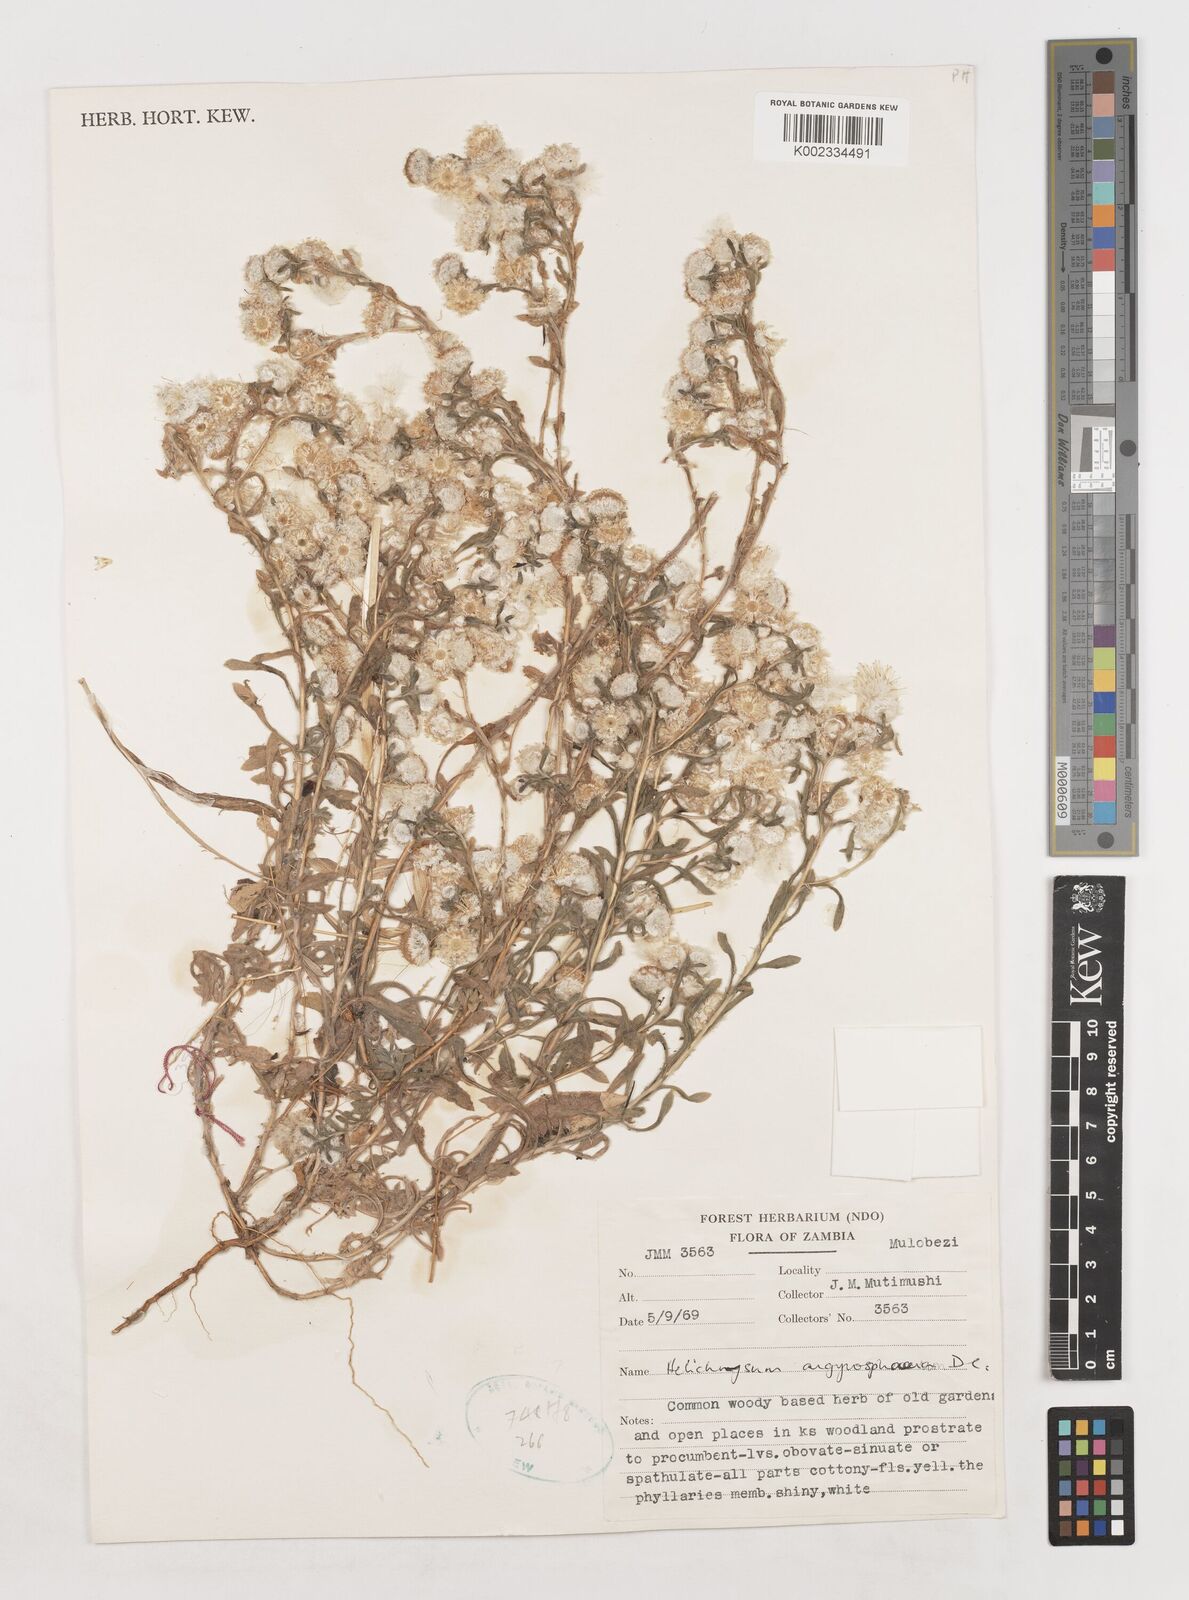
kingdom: Plantae
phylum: Tracheophyta
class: Magnoliopsida
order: Asterales
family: Asteraceae
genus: Helichrysum
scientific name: Helichrysum argyrosphaerum
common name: Wild everlasting
